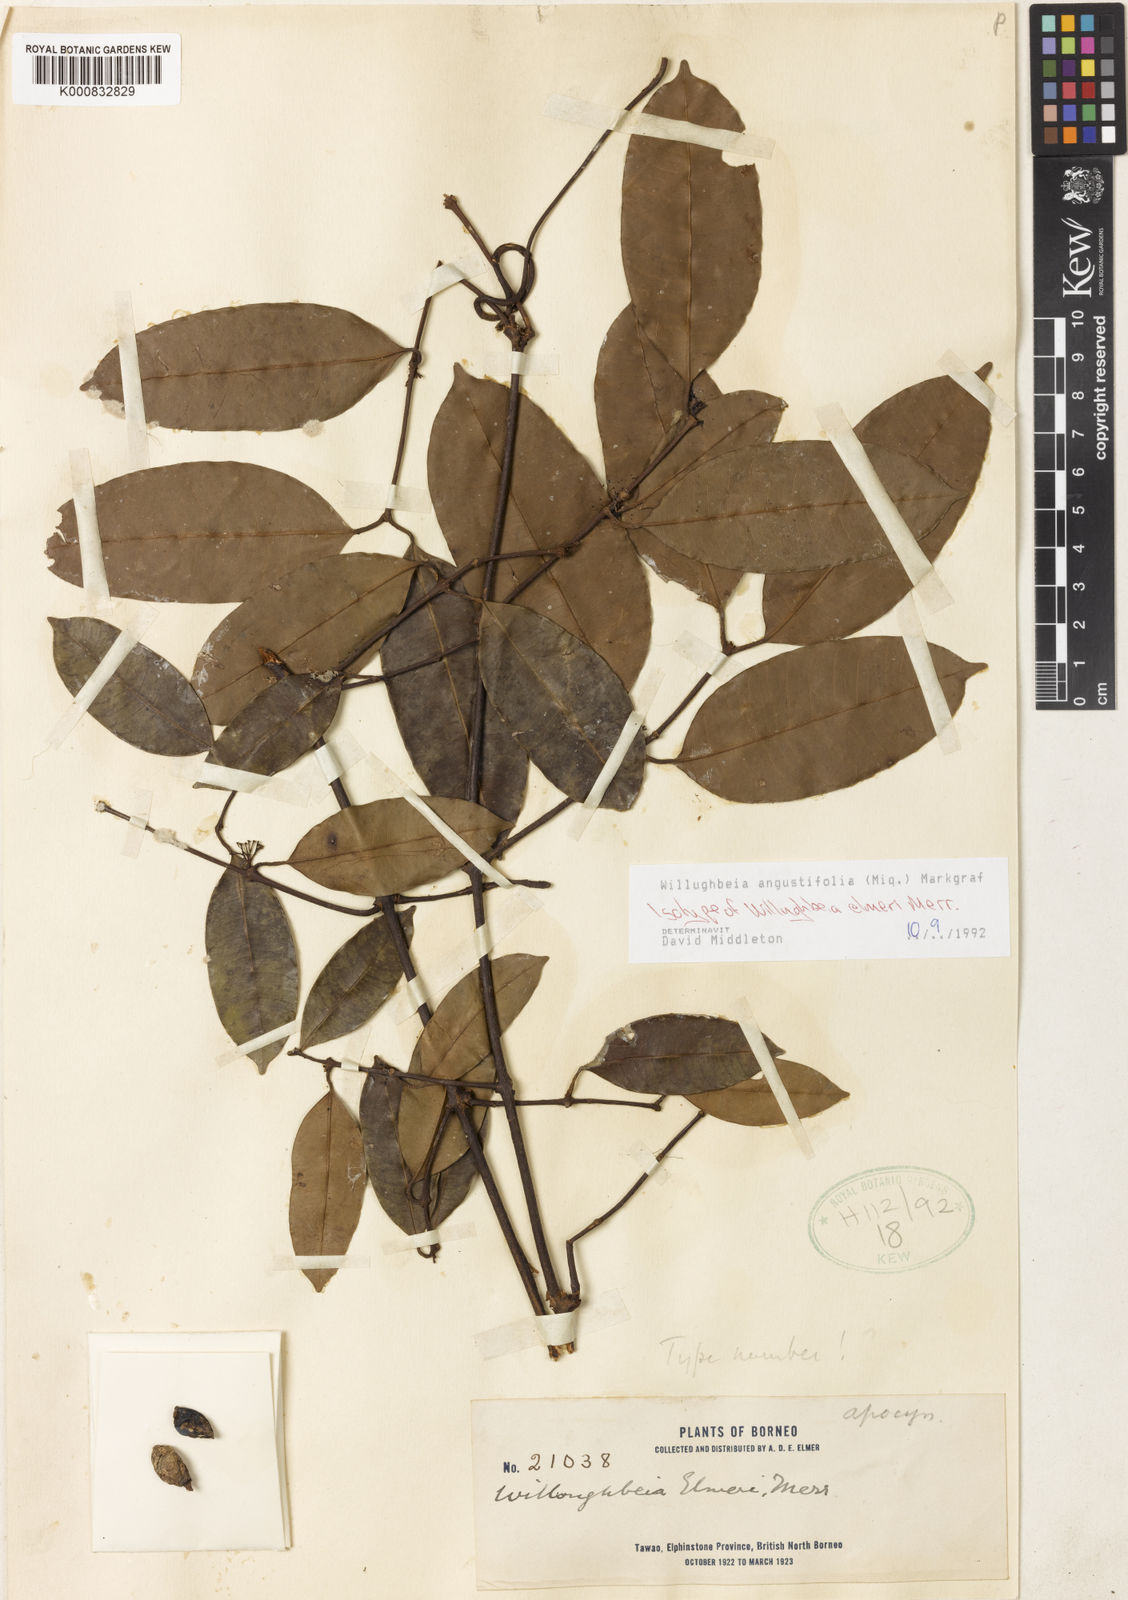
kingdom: Plantae
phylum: Tracheophyta
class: Magnoliopsida
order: Gentianales
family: Apocynaceae
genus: Willughbeia
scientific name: Willughbeia angustifolia
